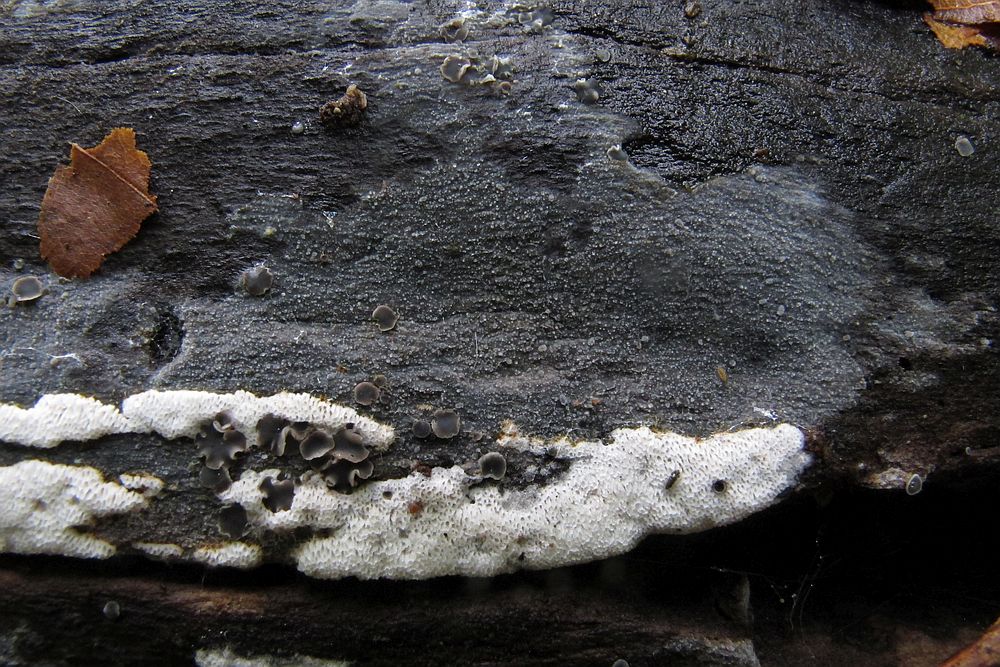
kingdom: Fungi
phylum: Basidiomycota
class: Agaricomycetes
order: Polyporales
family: Meruliaceae
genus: Scopuloides
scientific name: Scopuloides rimosa
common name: dughinde
